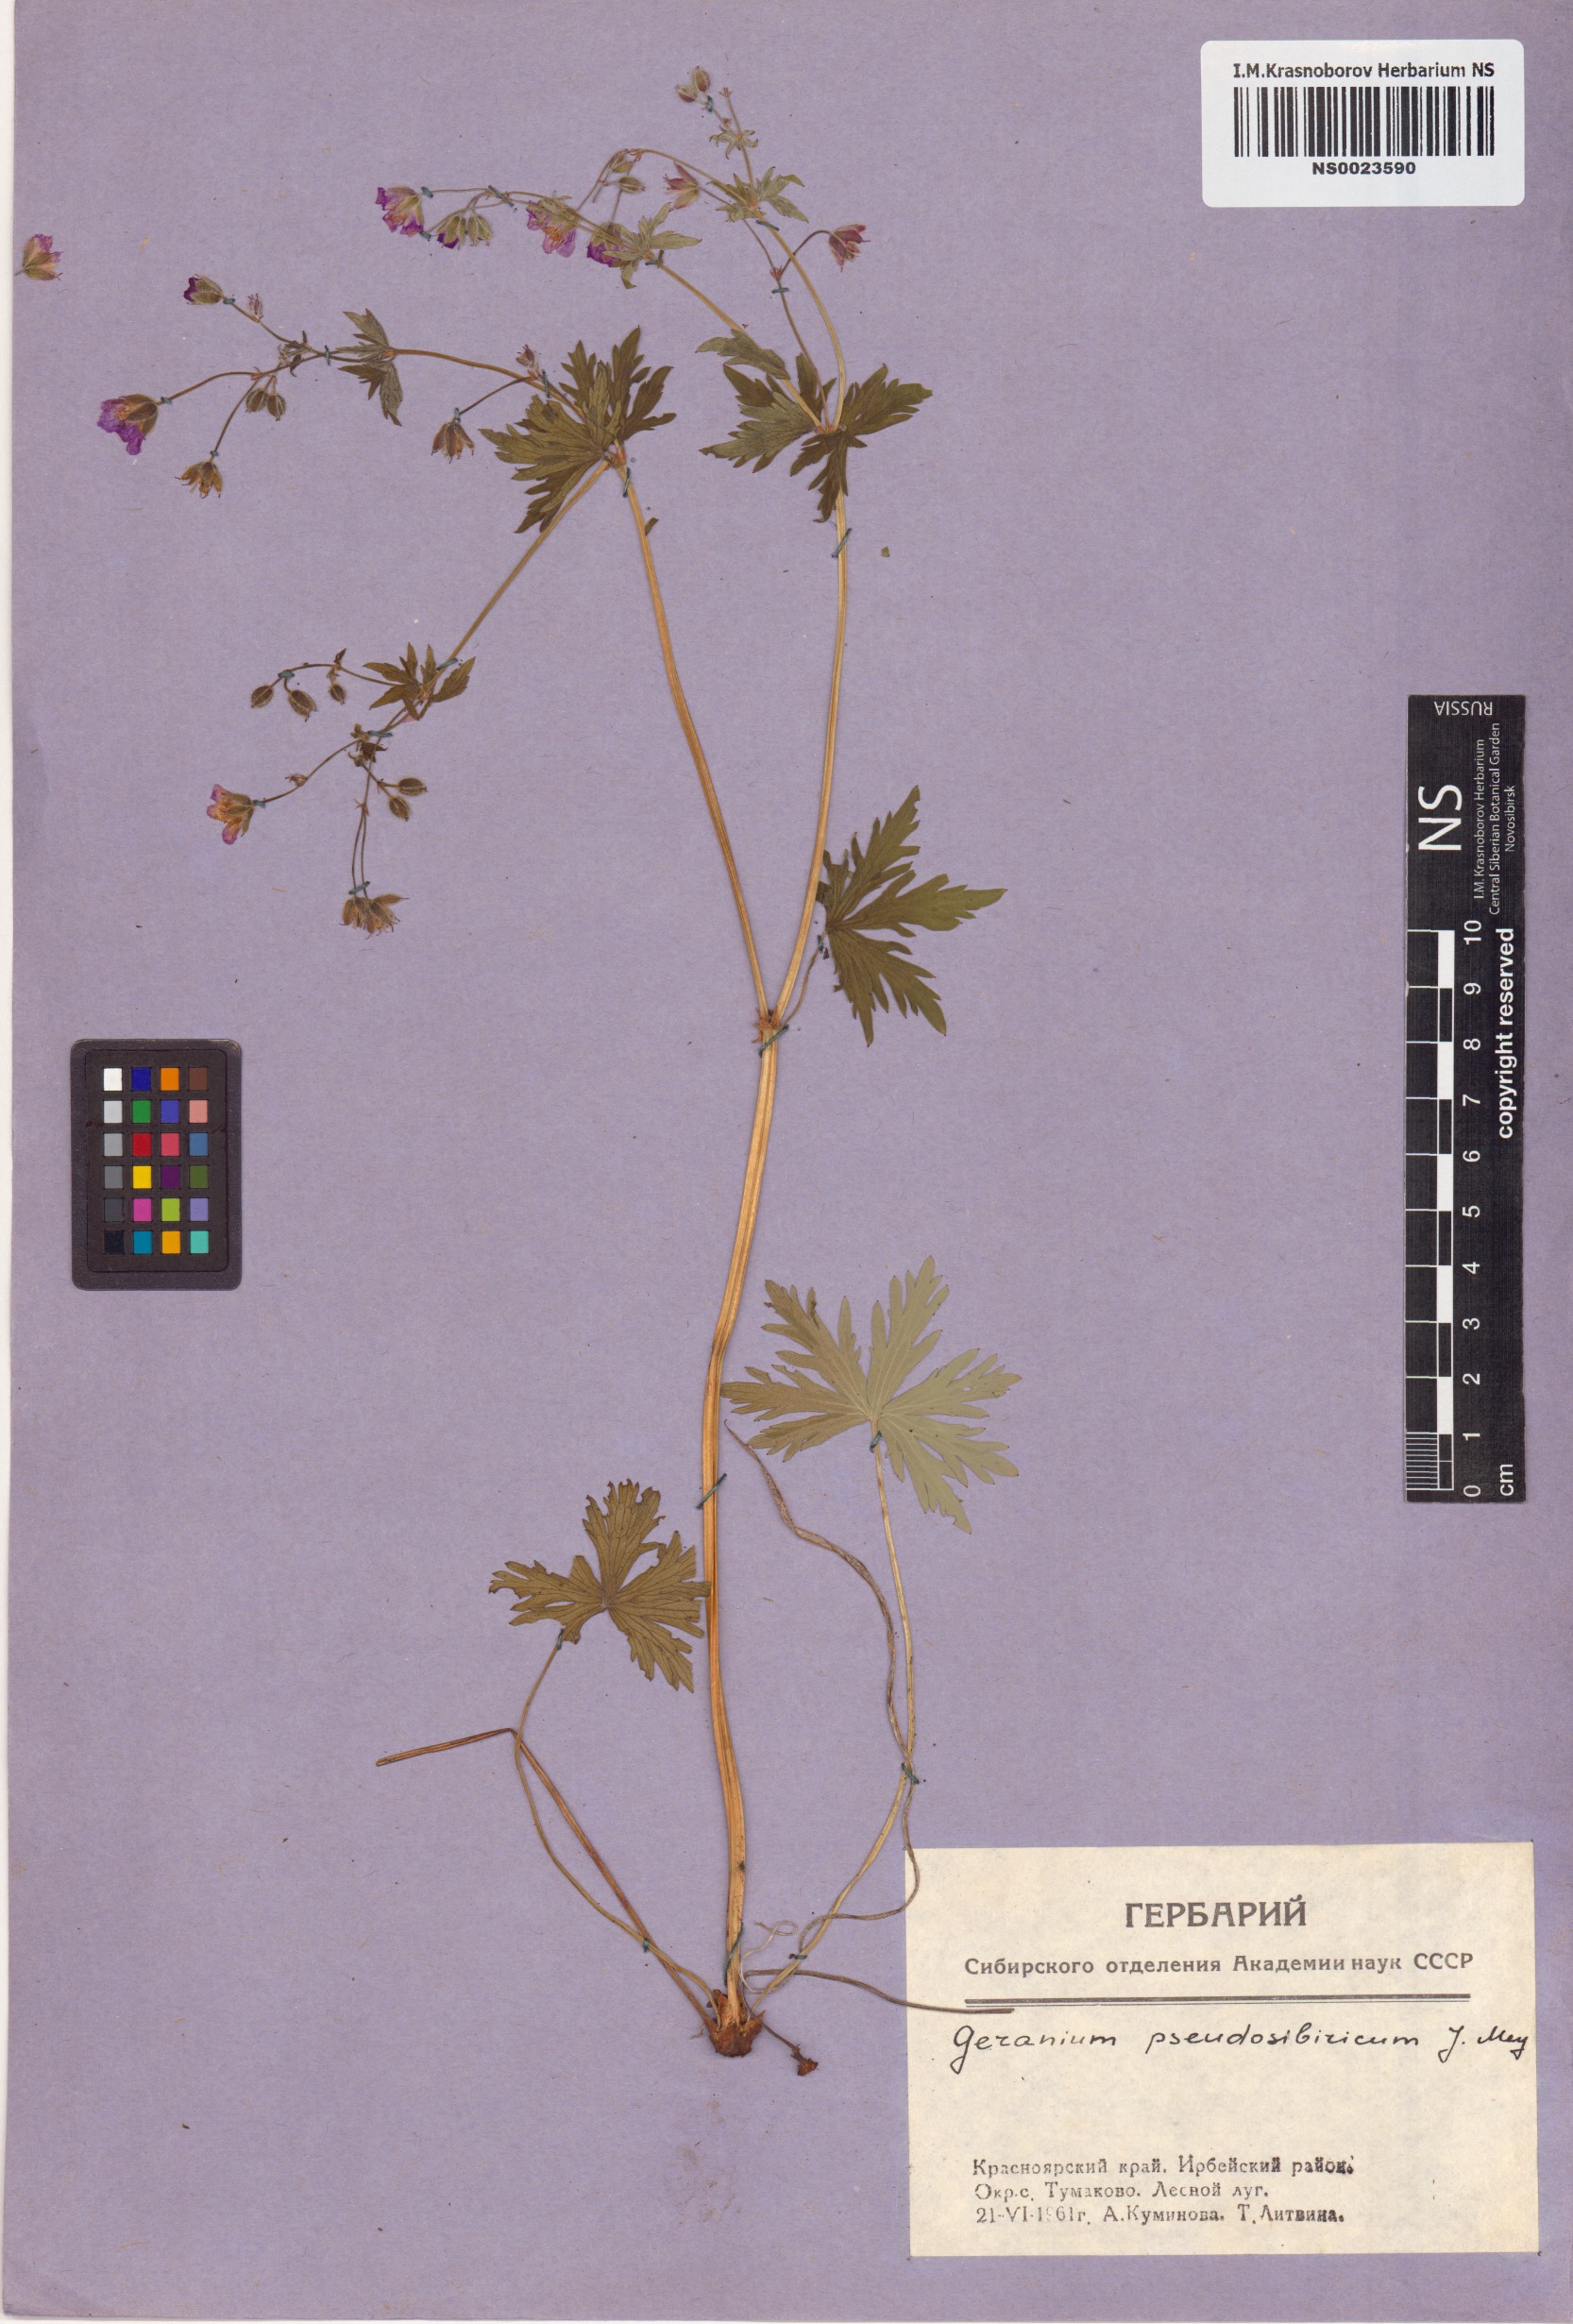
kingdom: Plantae
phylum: Tracheophyta
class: Magnoliopsida
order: Geraniales
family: Geraniaceae
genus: Geranium
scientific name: Geranium pseudosibiricum
